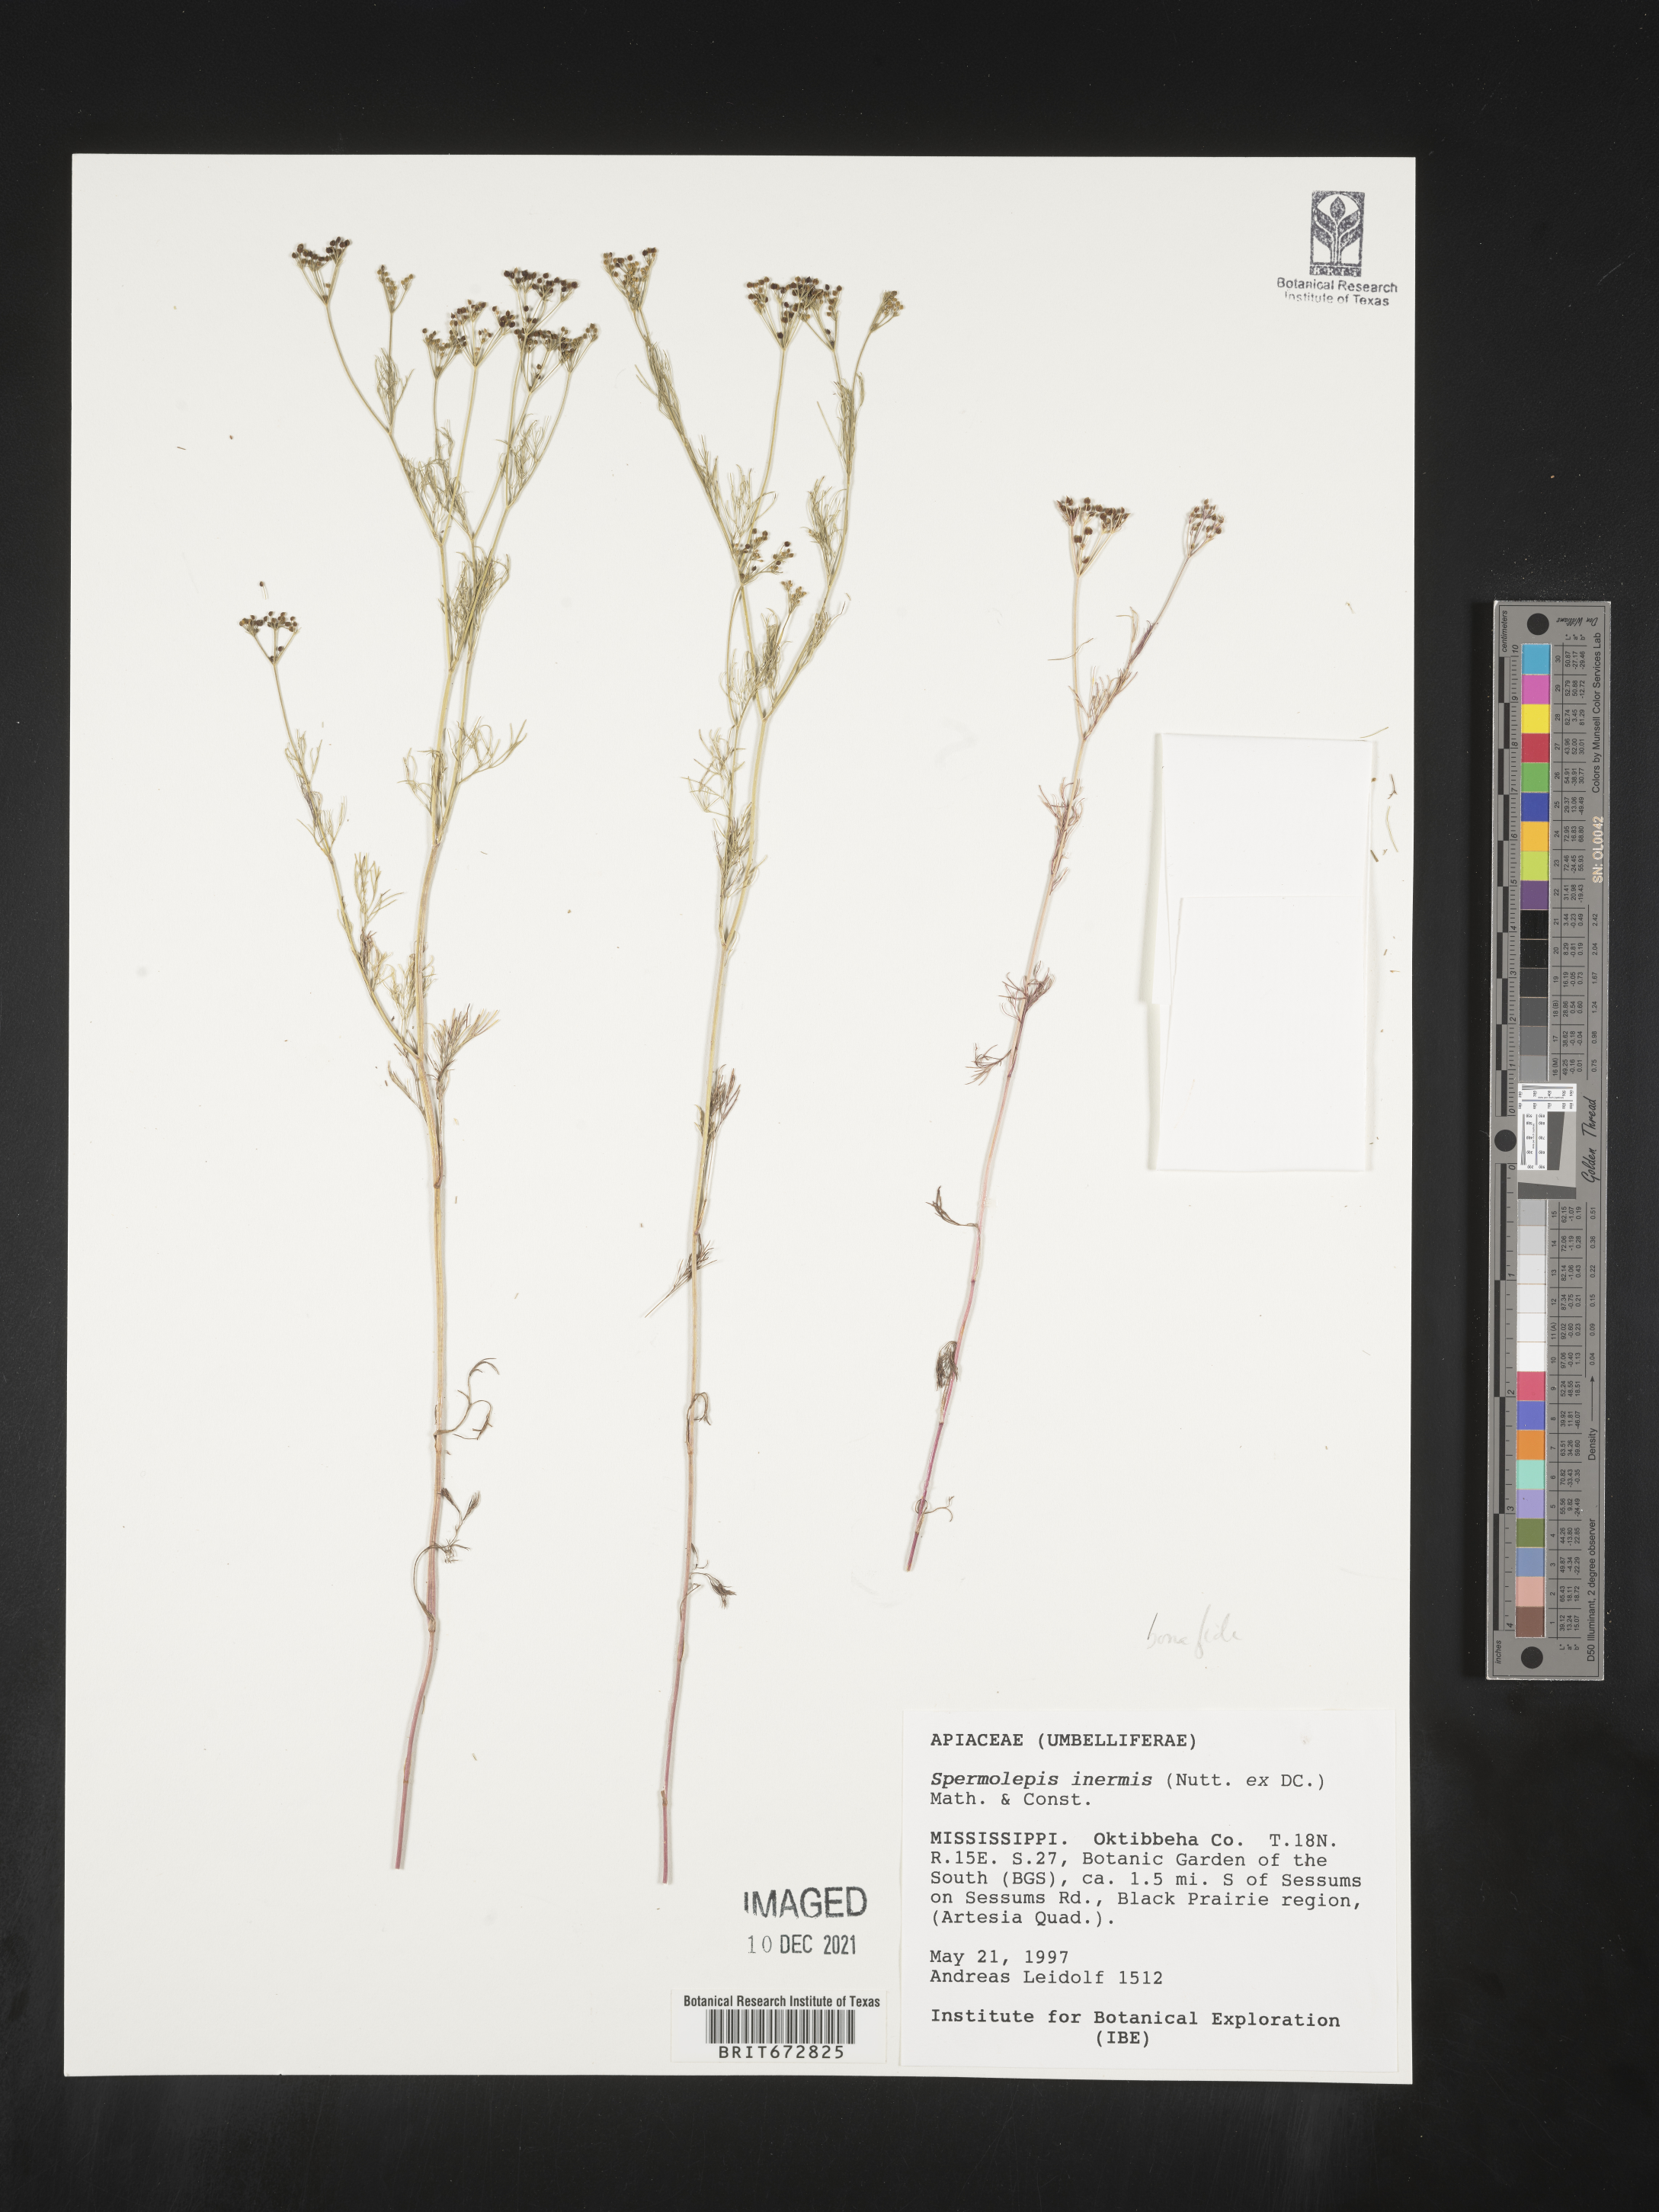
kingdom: Plantae
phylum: Tracheophyta
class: Magnoliopsida
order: Apiales
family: Apiaceae
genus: Spermolepis
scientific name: Spermolepis inermis
